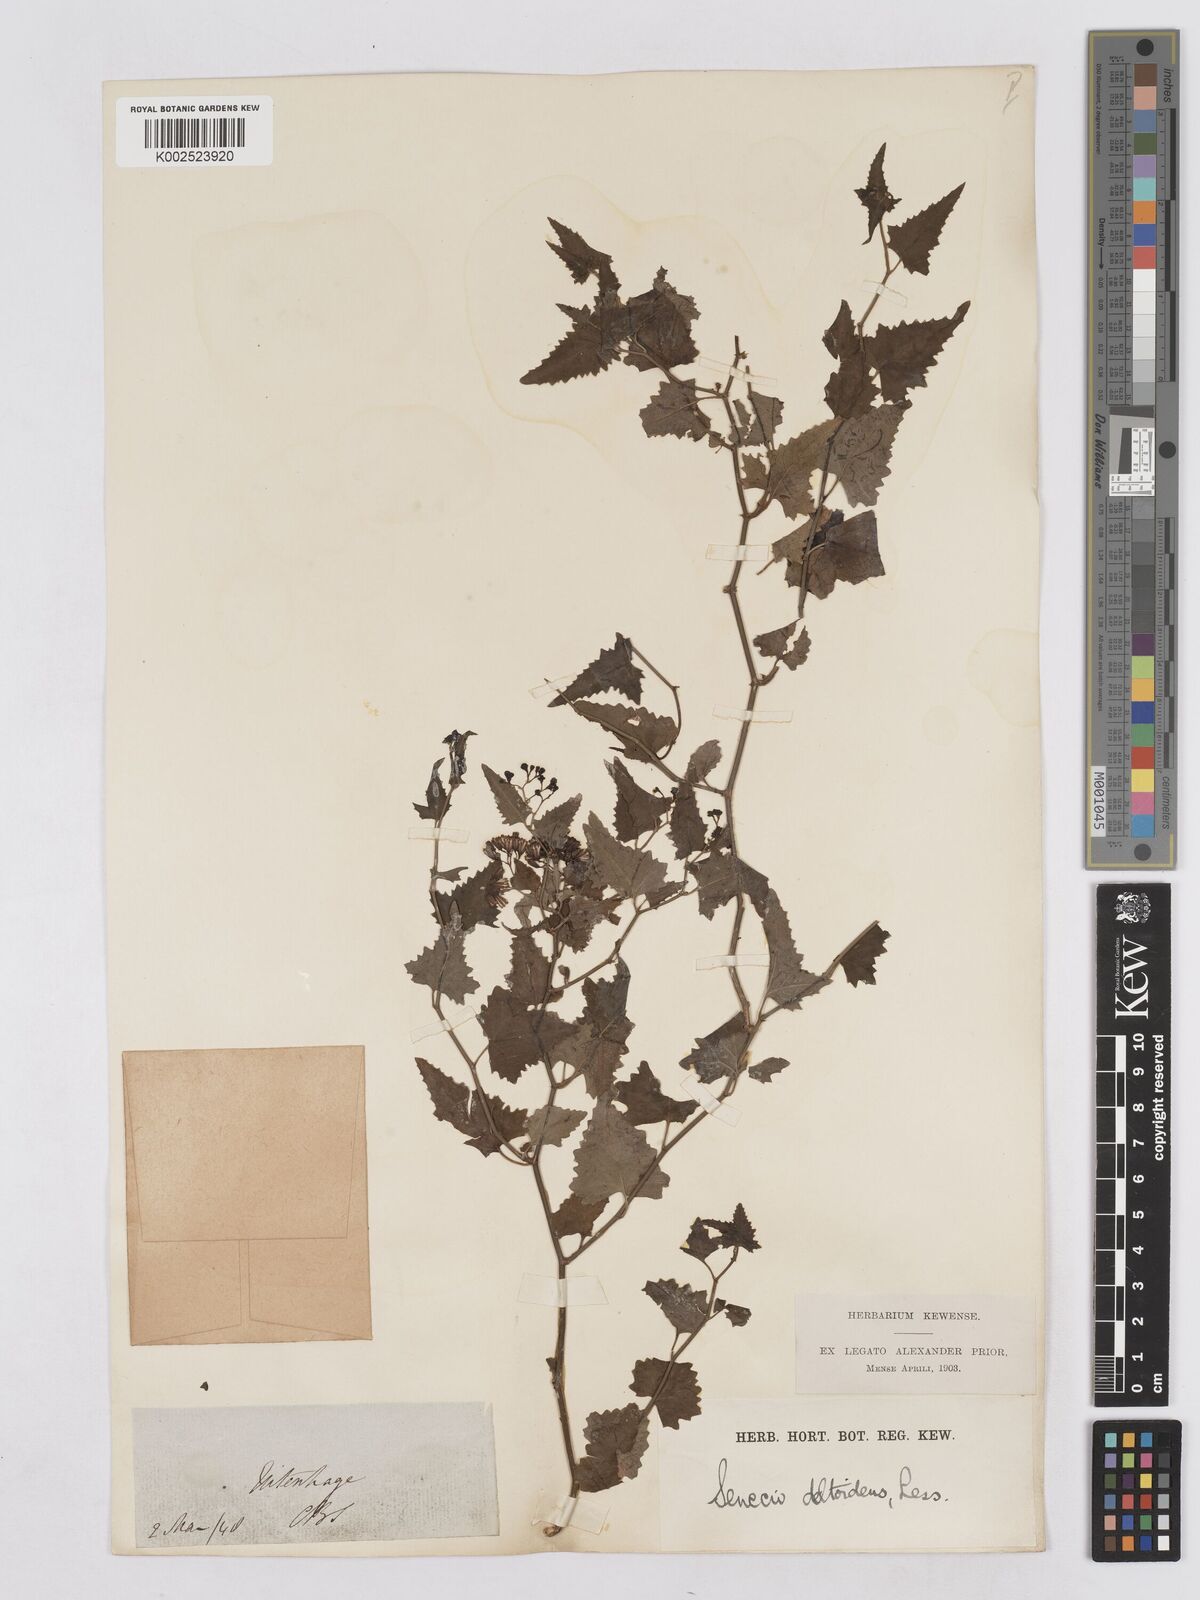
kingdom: Plantae
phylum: Tracheophyta
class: Magnoliopsida
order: Asterales
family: Asteraceae
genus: Senecio
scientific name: Senecio deltoideus
